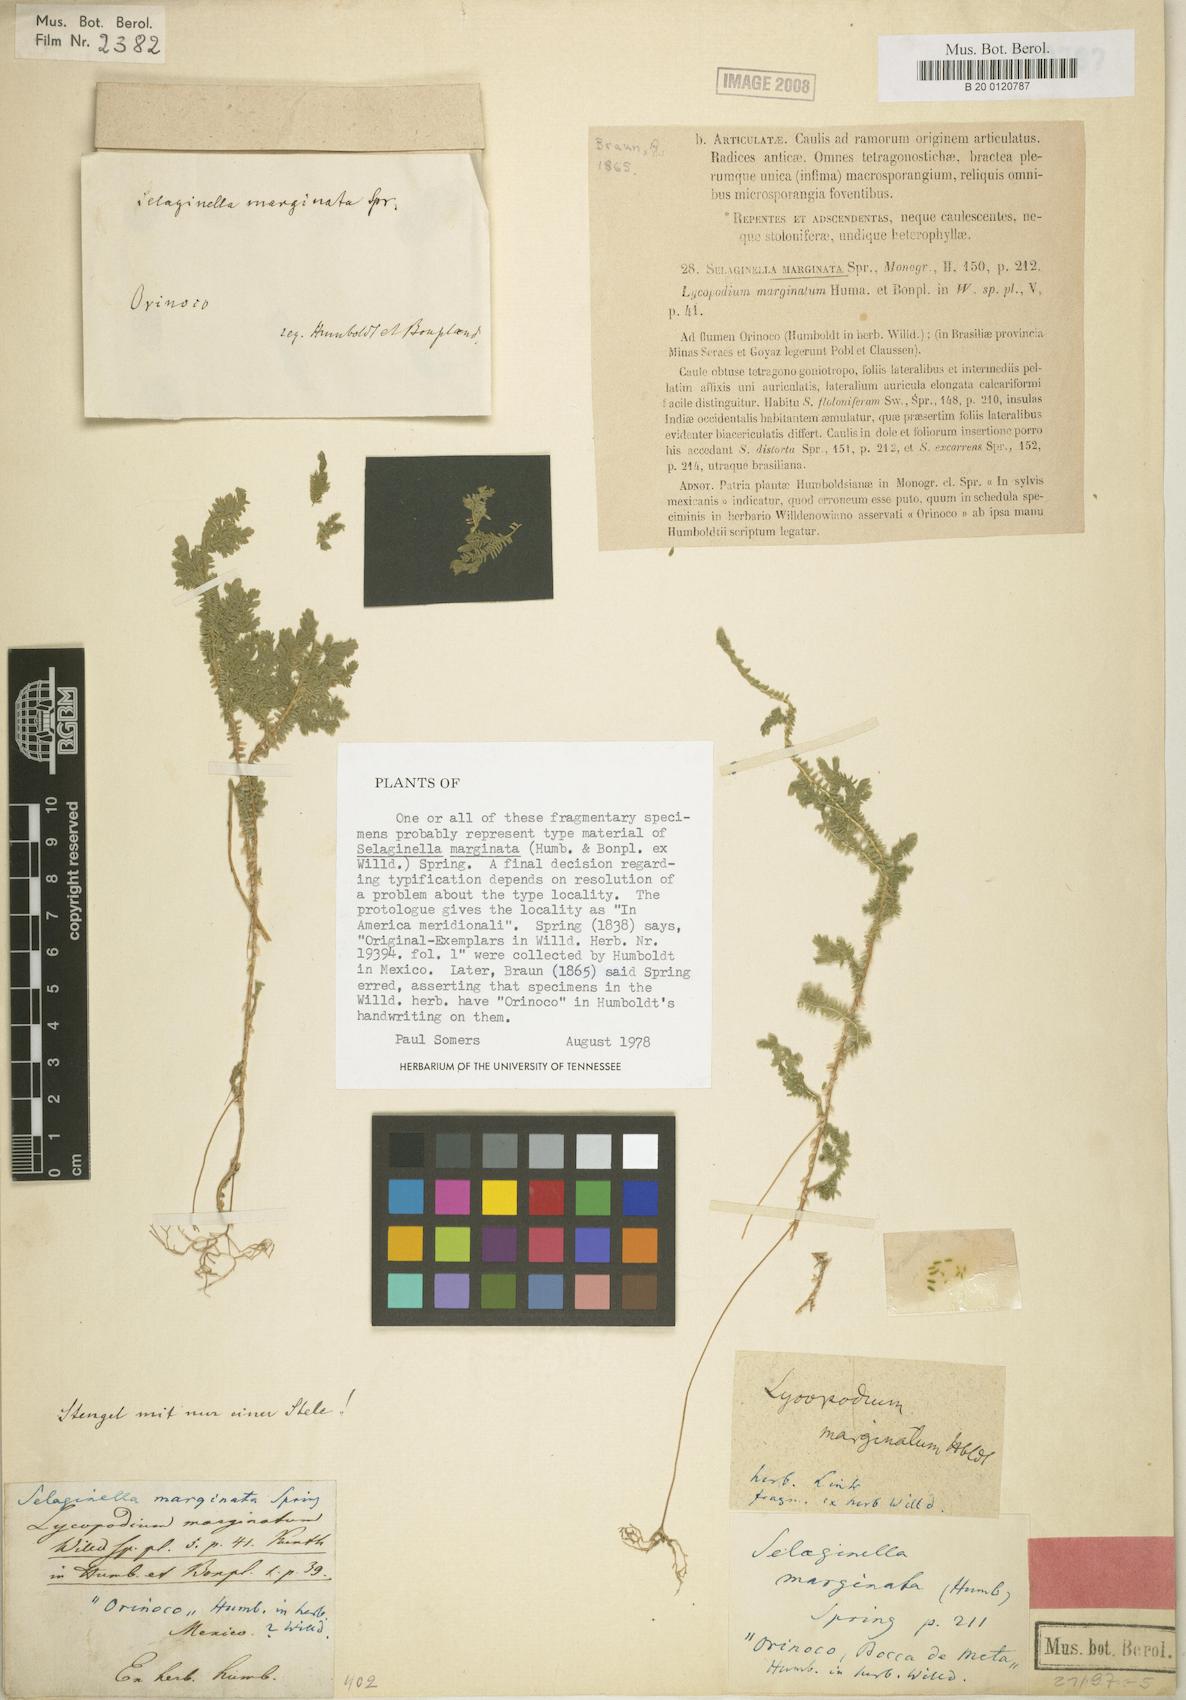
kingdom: Plantae
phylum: Tracheophyta
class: Lycopodiopsida
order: Selaginellales
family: Selaginellaceae
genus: Selaginella
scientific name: Selaginella marginata
